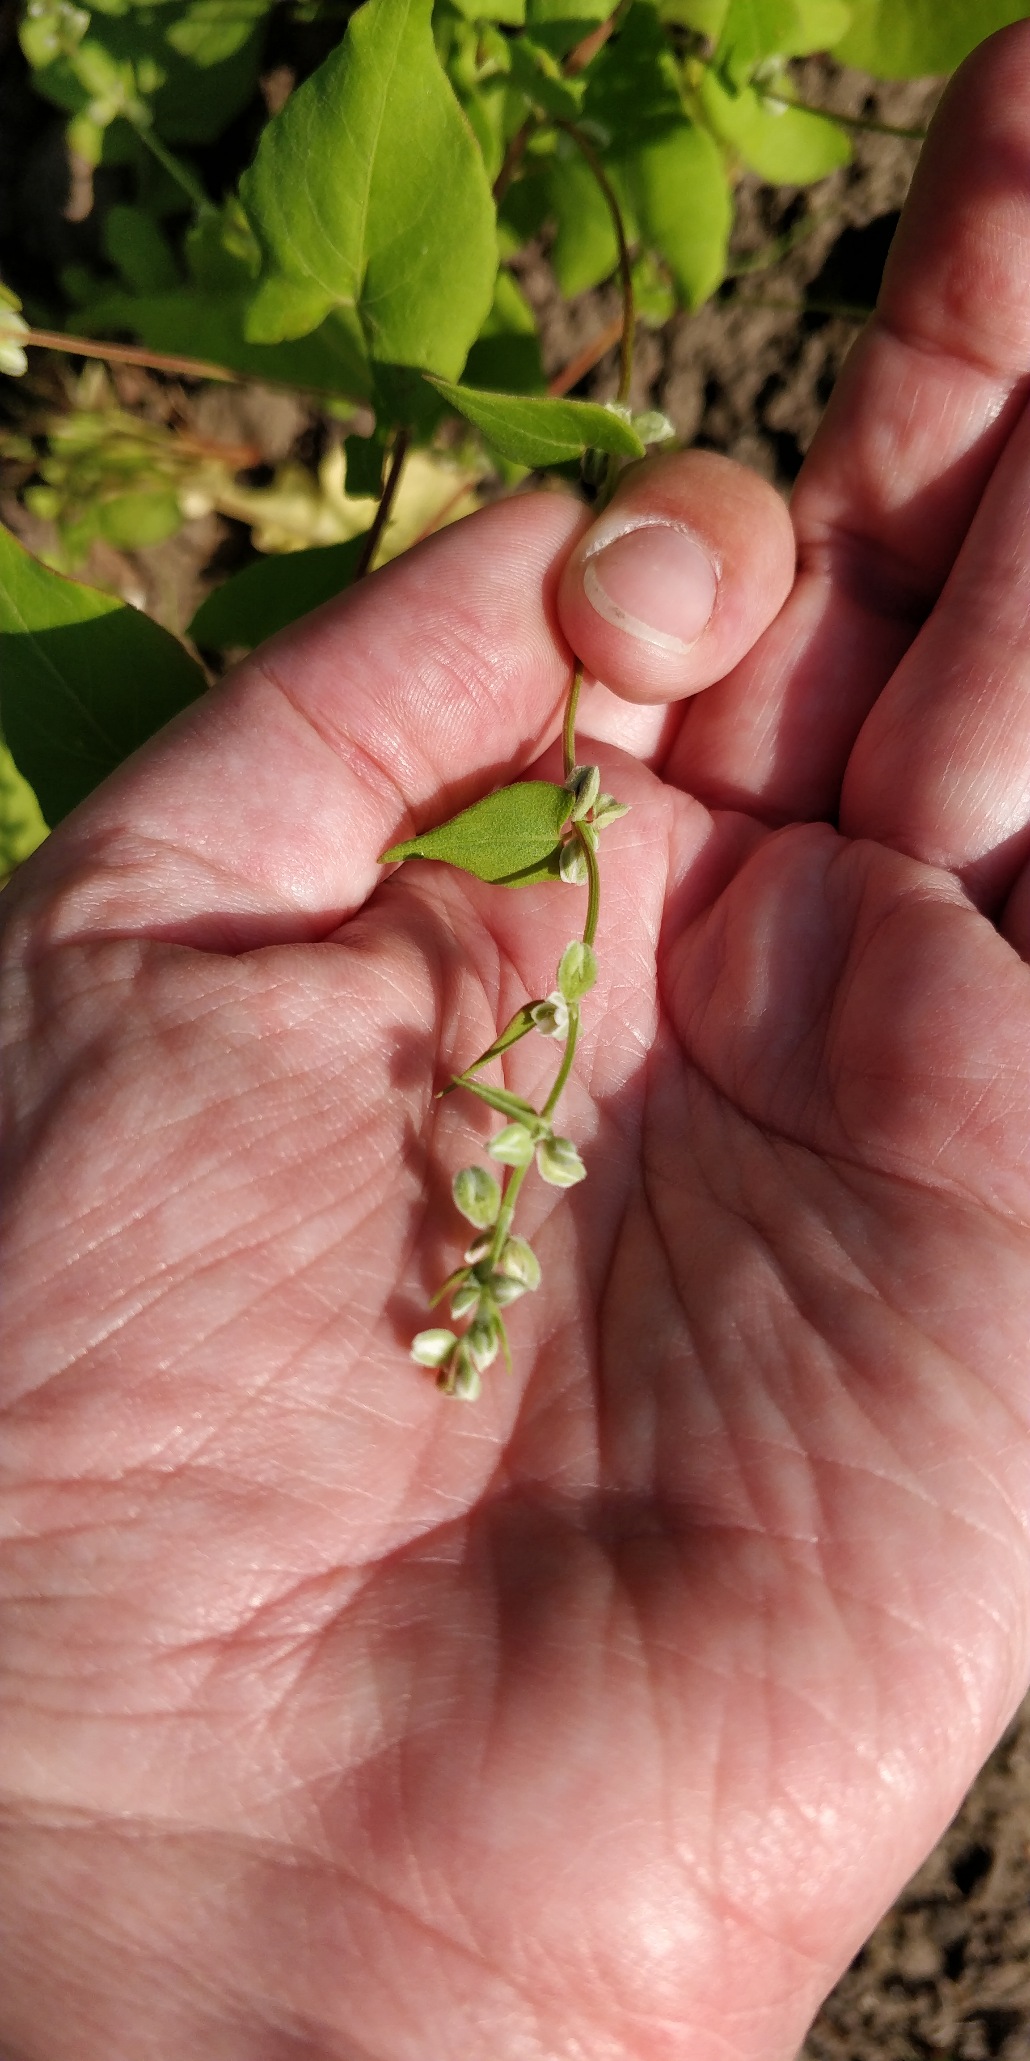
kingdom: Plantae
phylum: Tracheophyta
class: Magnoliopsida
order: Caryophyllales
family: Polygonaceae
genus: Fallopia
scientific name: Fallopia convolvulus
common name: Snerle-pileurt
